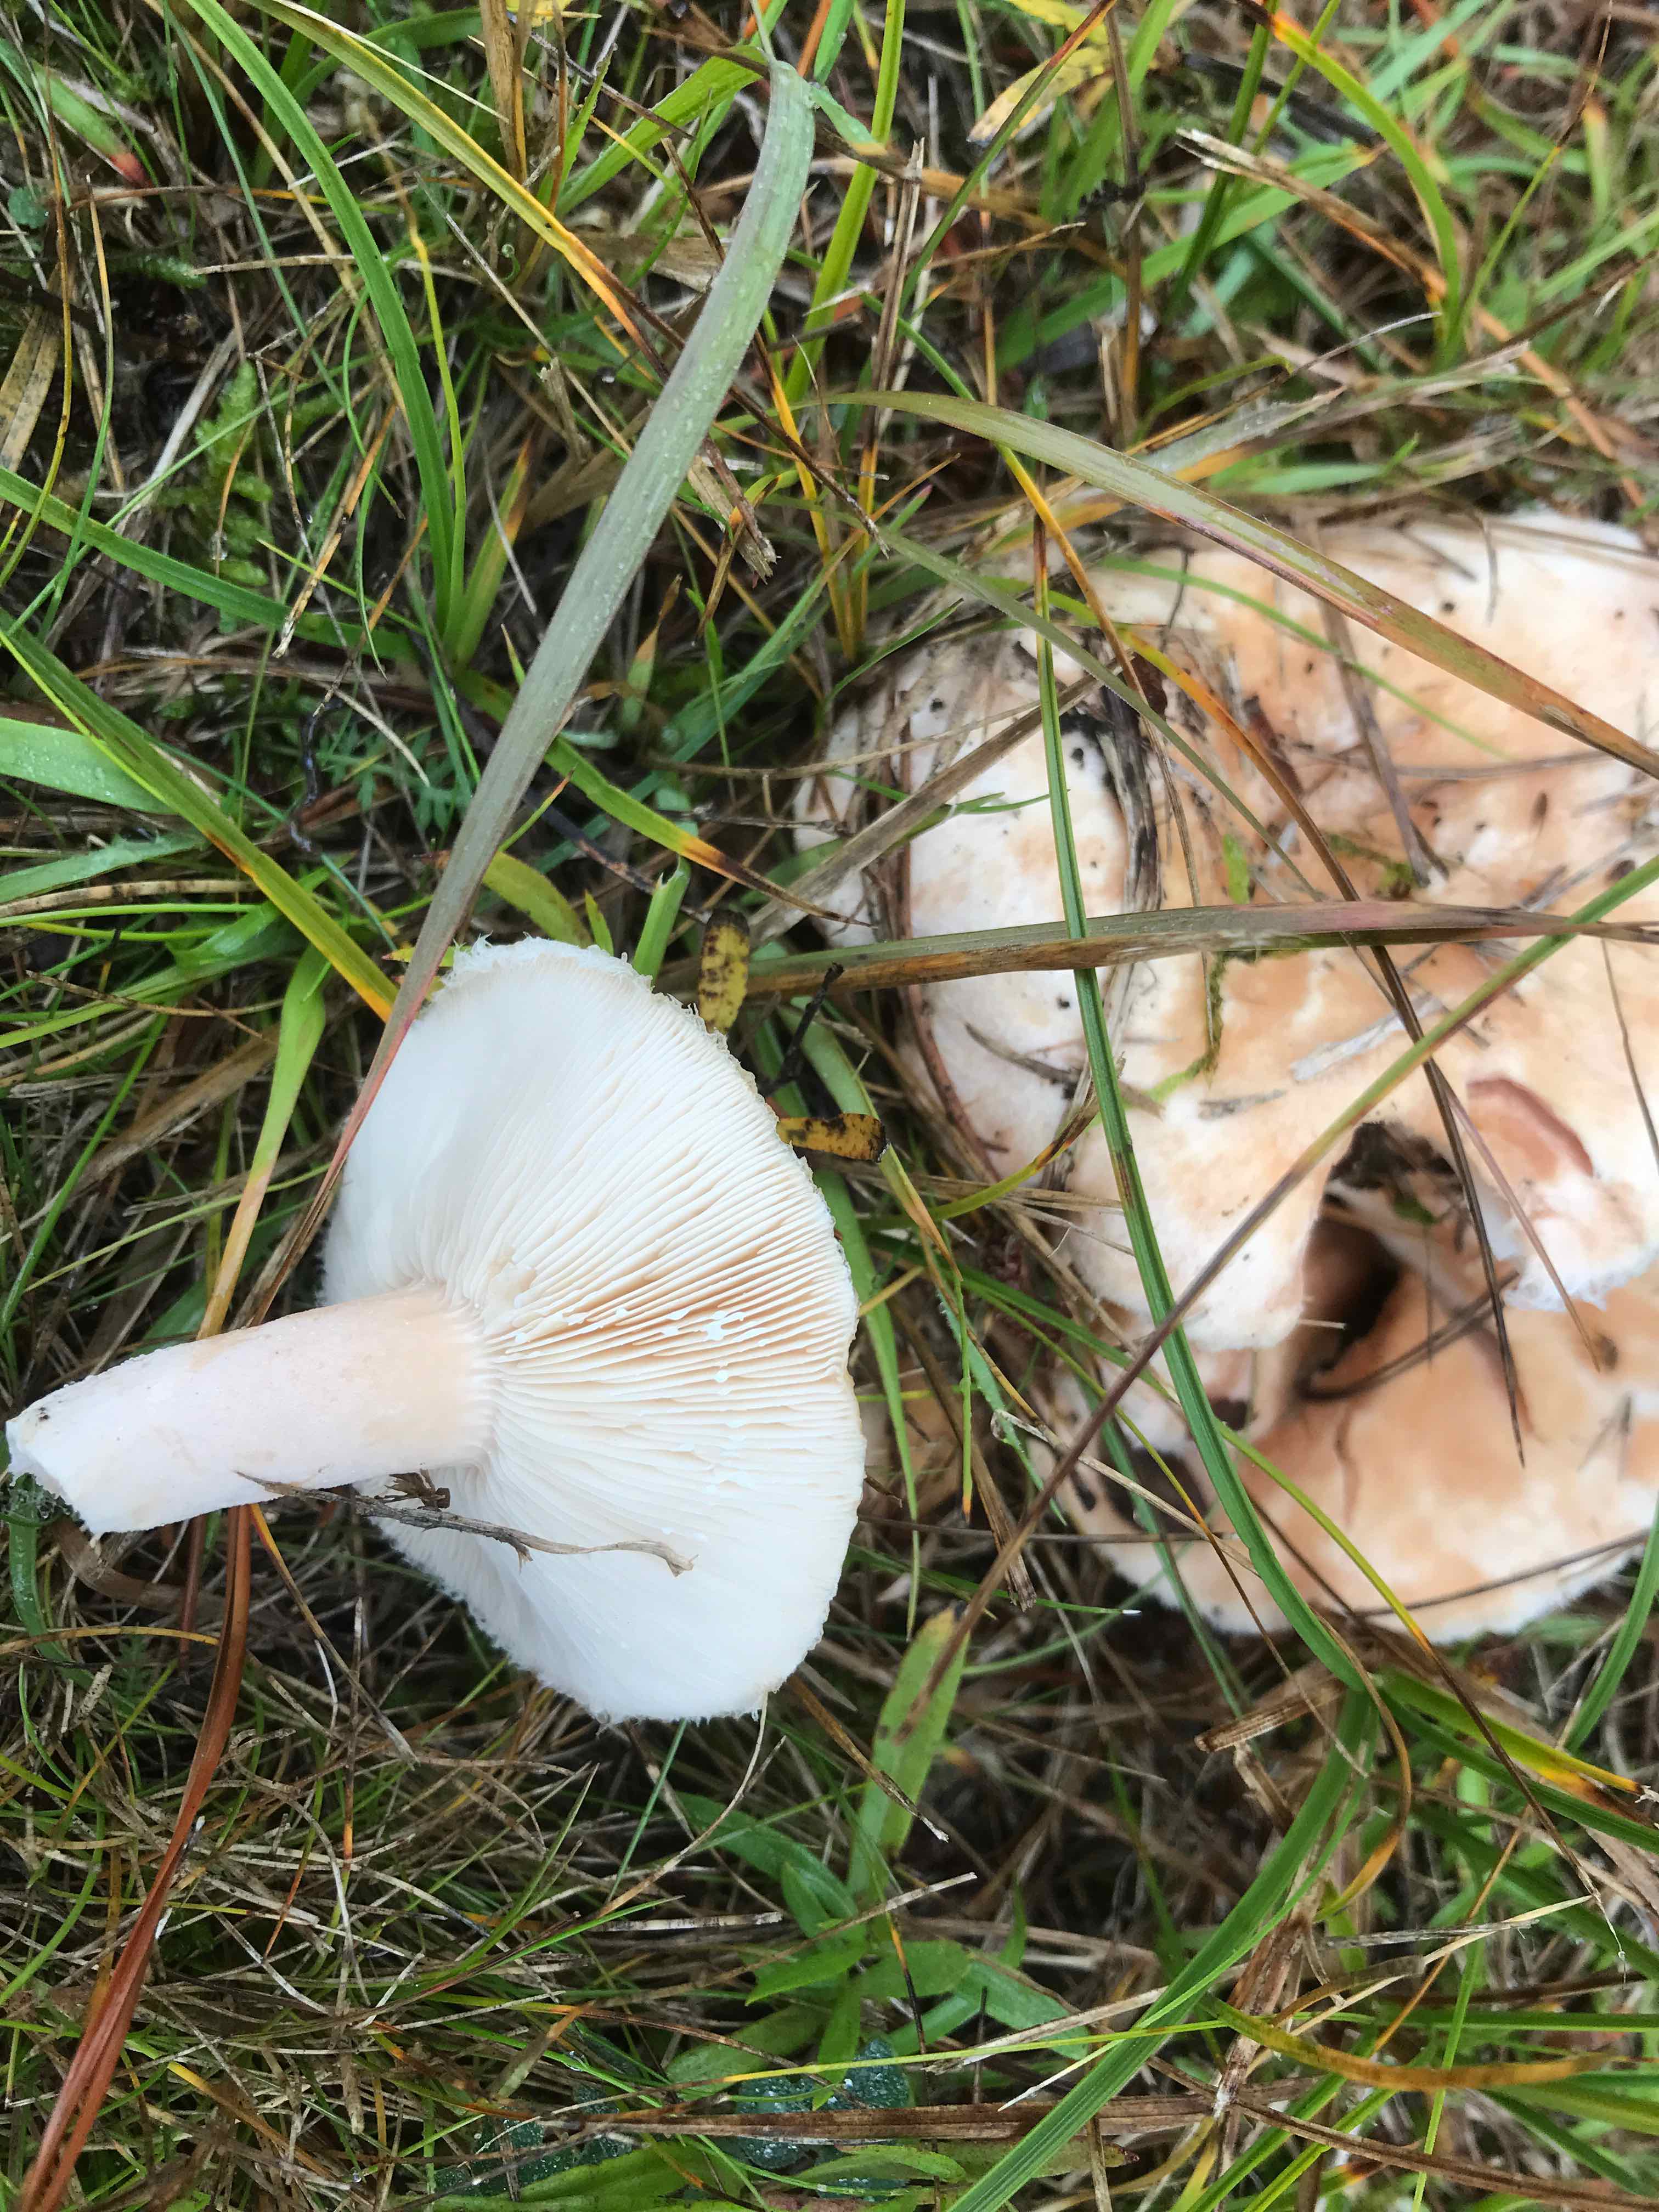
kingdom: Fungi
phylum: Basidiomycota
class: Agaricomycetes
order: Russulales
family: Russulaceae
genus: Lactarius
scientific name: Lactarius pubescens
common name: dunet mælkehat
